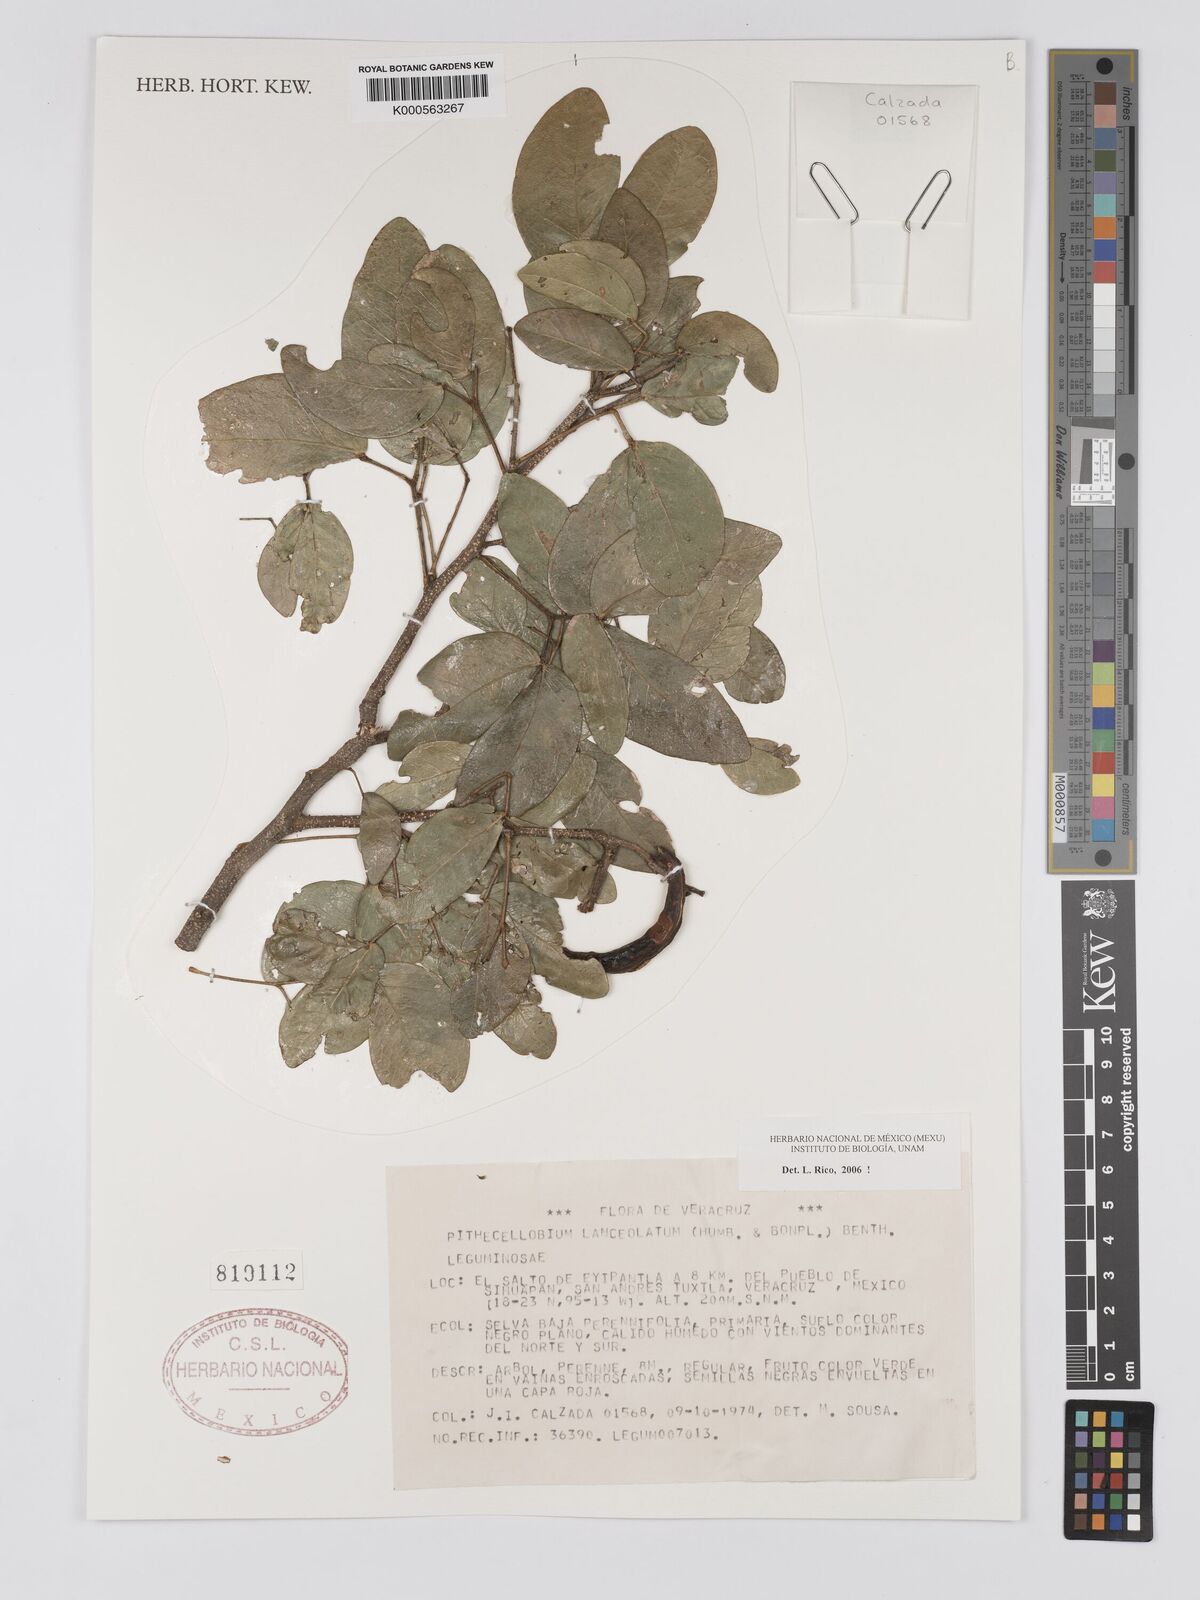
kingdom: Plantae
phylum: Tracheophyta
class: Magnoliopsida
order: Fabales
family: Fabaceae
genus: Pithecellobium
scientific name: Pithecellobium lanceolatum
